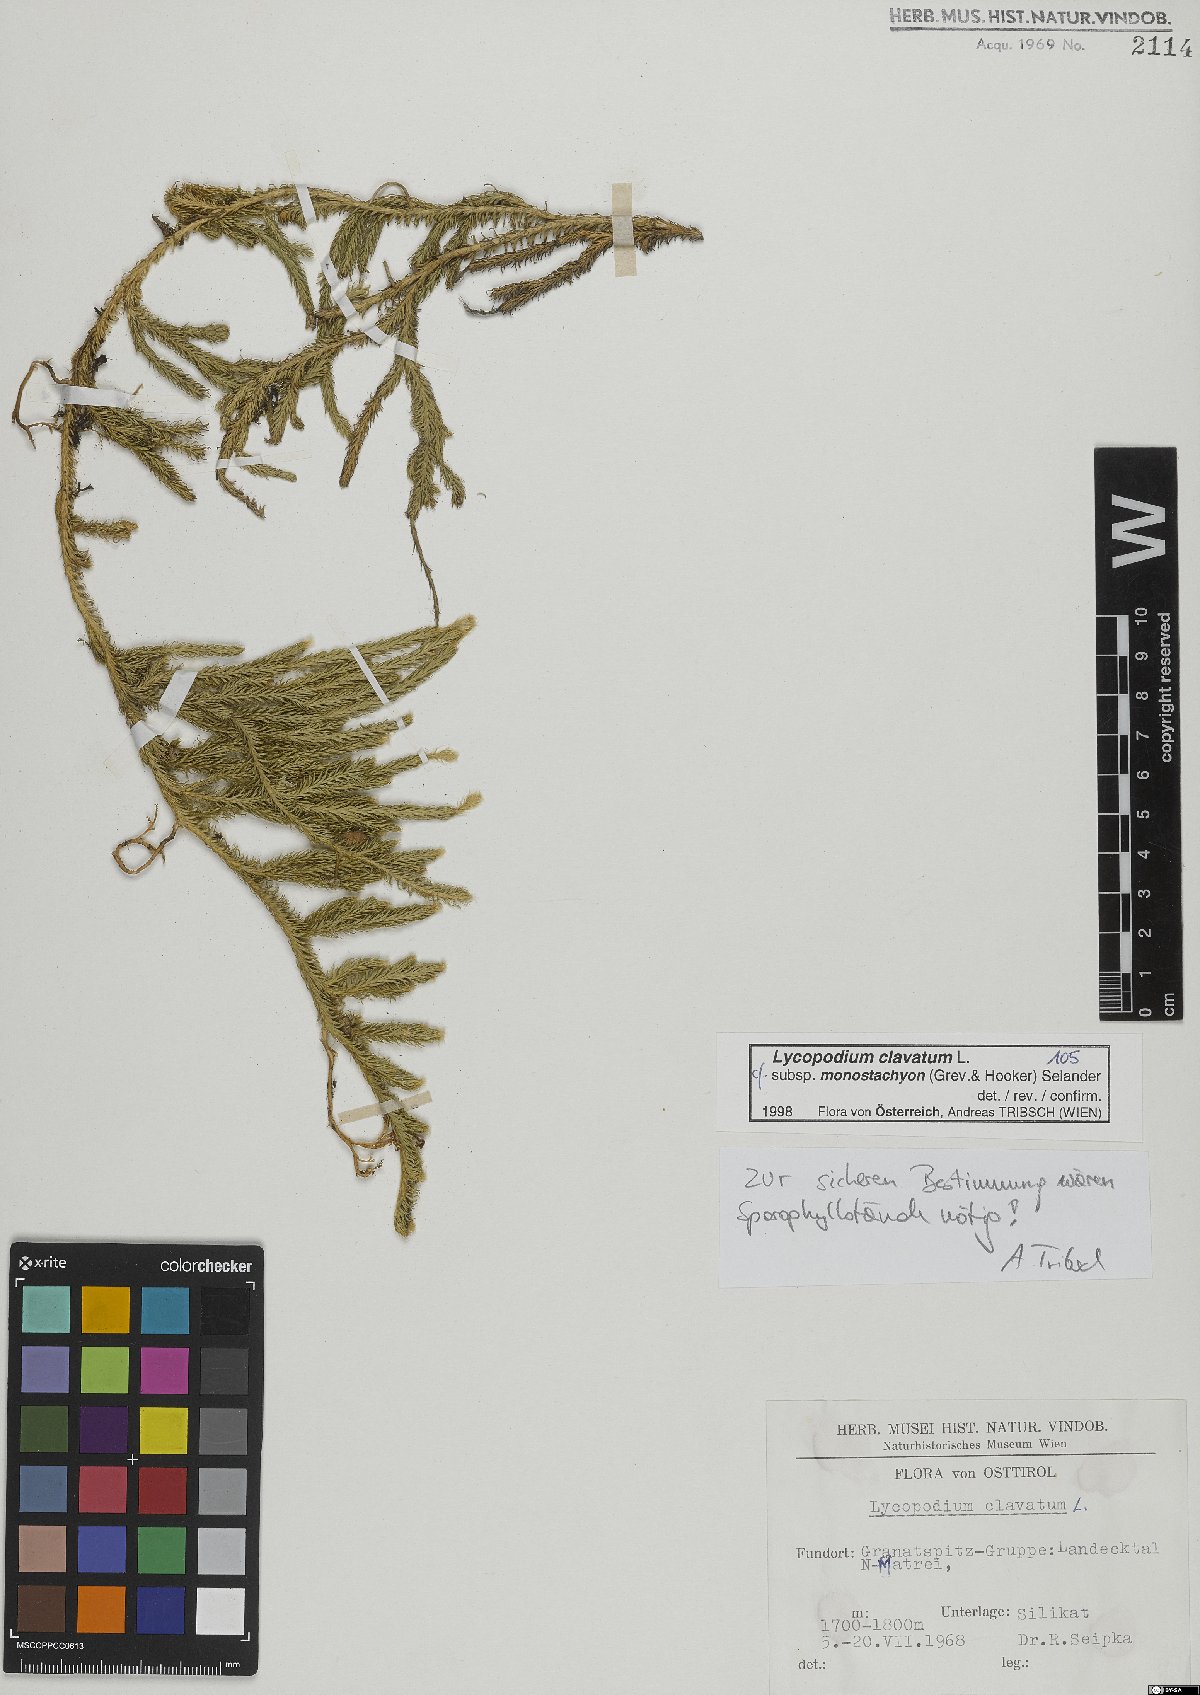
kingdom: Plantae
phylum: Tracheophyta
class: Lycopodiopsida
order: Lycopodiales
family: Lycopodiaceae
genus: Lycopodium
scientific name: Lycopodium lagopus
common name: One-cone clubmoss
